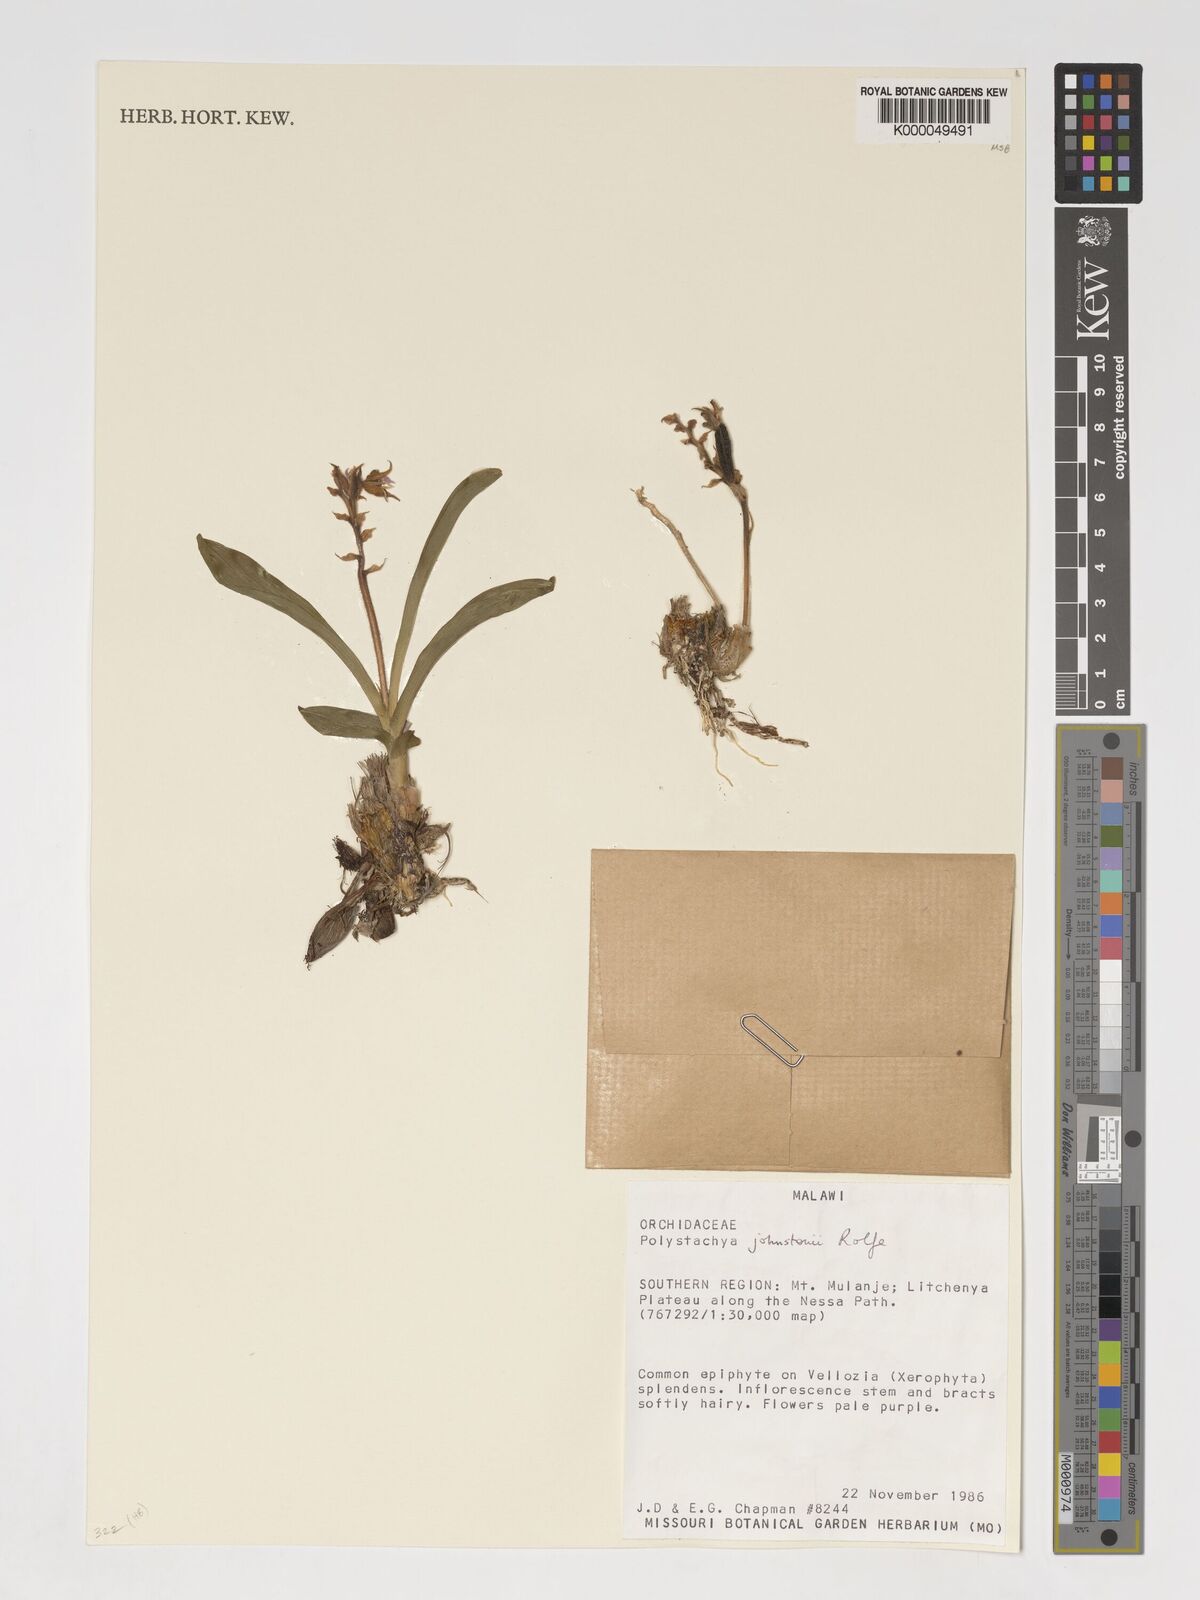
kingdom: Plantae
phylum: Tracheophyta
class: Liliopsida
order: Asparagales
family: Orchidaceae
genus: Polystachya
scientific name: Polystachya johnstonii
